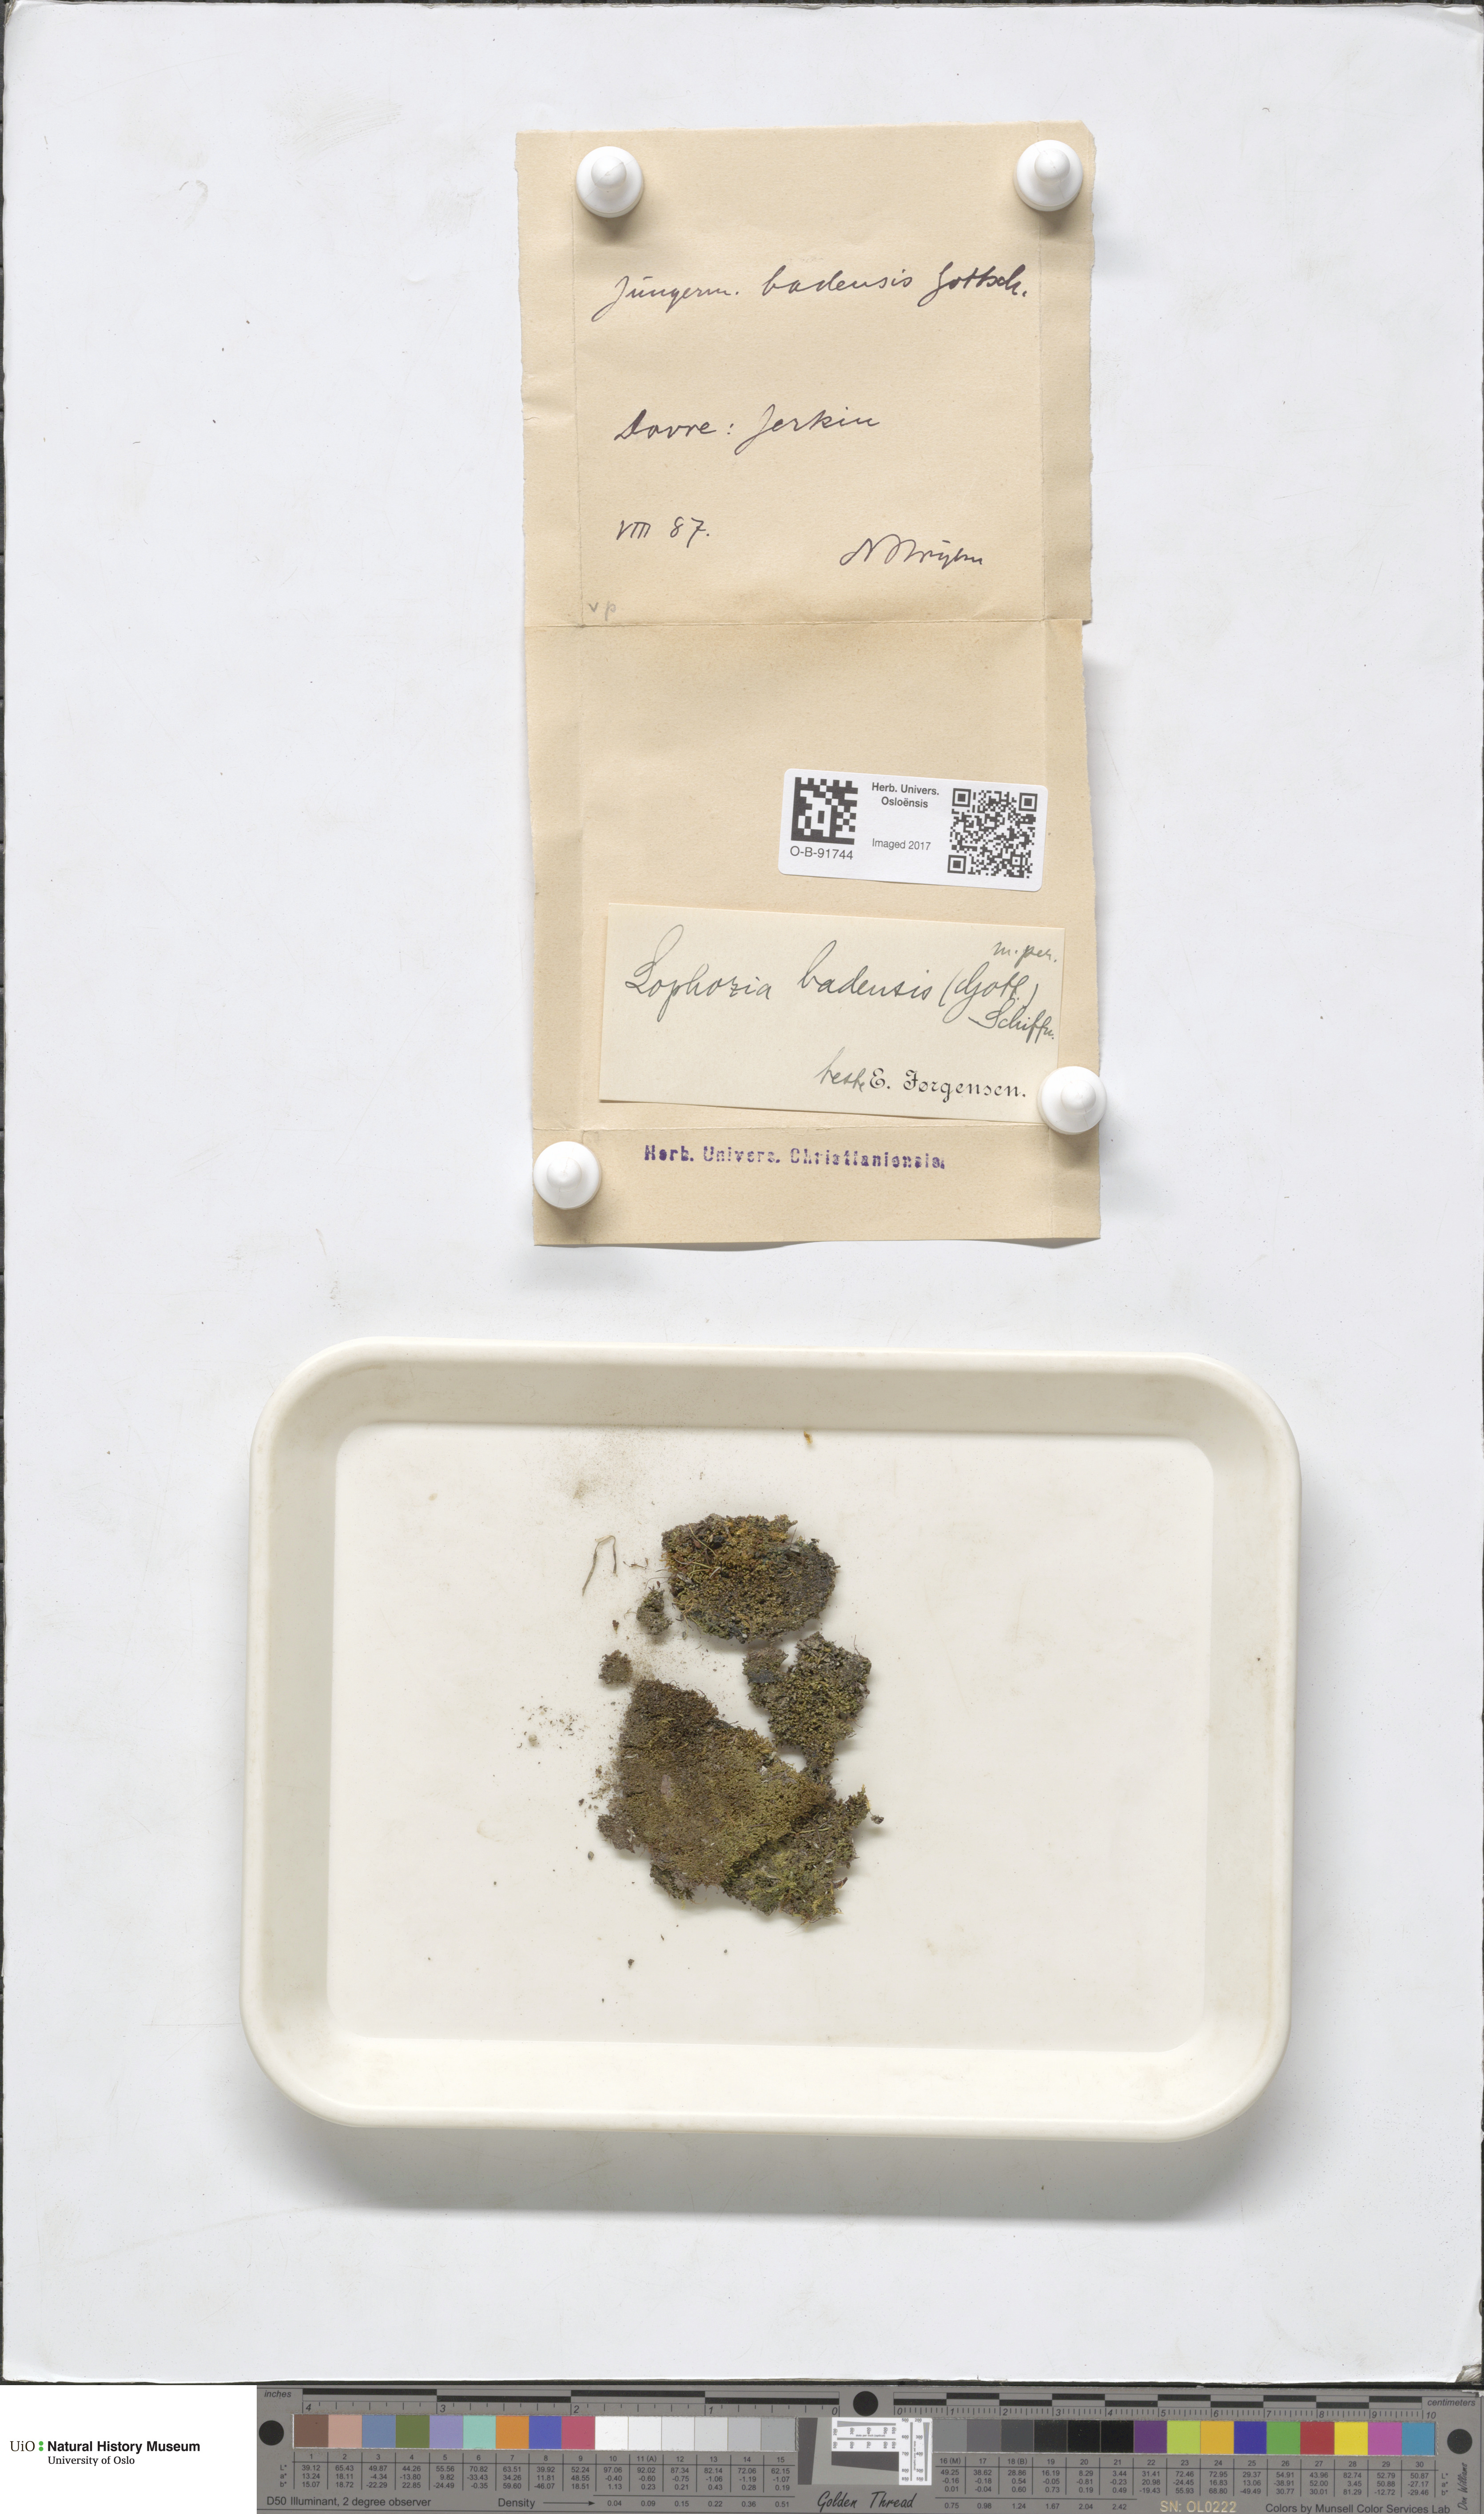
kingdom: Plantae
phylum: Marchantiophyta
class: Jungermanniopsida
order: Jungermanniales
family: Jungermanniaceae
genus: Mesoptychia
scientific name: Mesoptychia badensis
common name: Scarce notchwort
